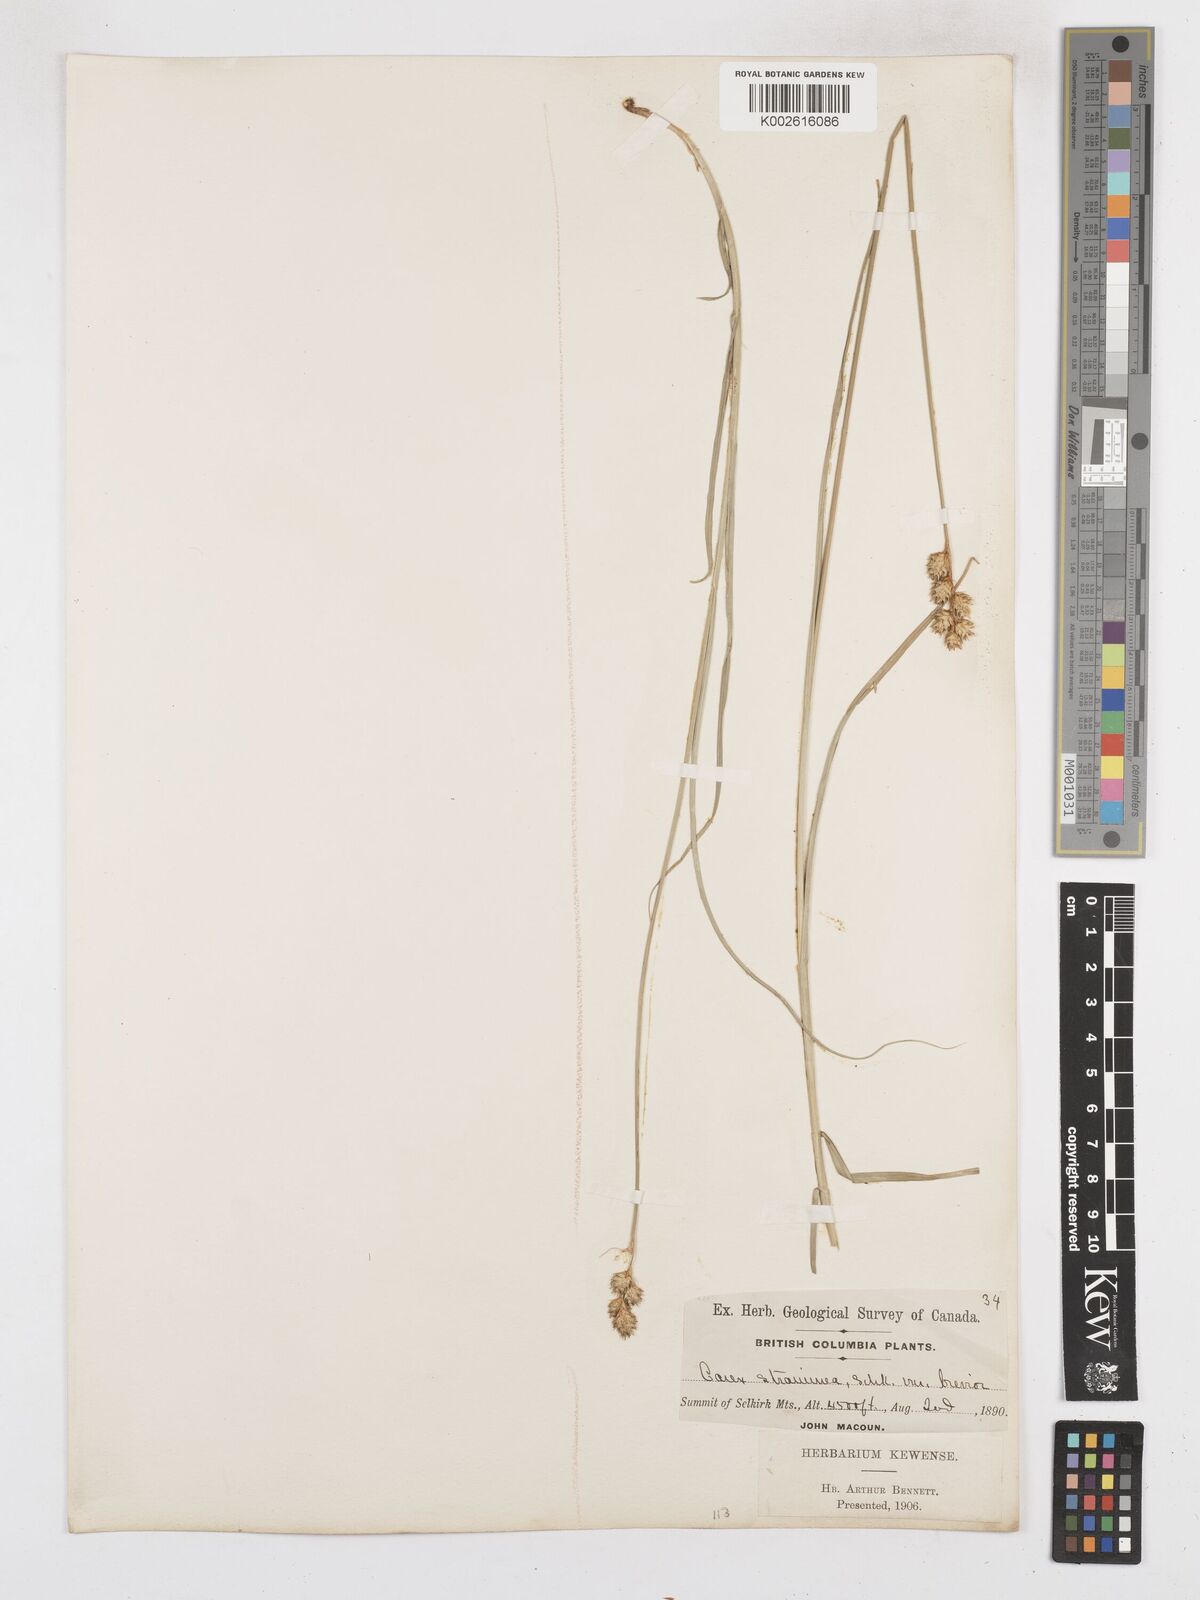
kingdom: Plantae
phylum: Tracheophyta
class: Liliopsida
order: Poales
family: Cyperaceae
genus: Carex
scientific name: Carex brevior
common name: Brevior sedge
